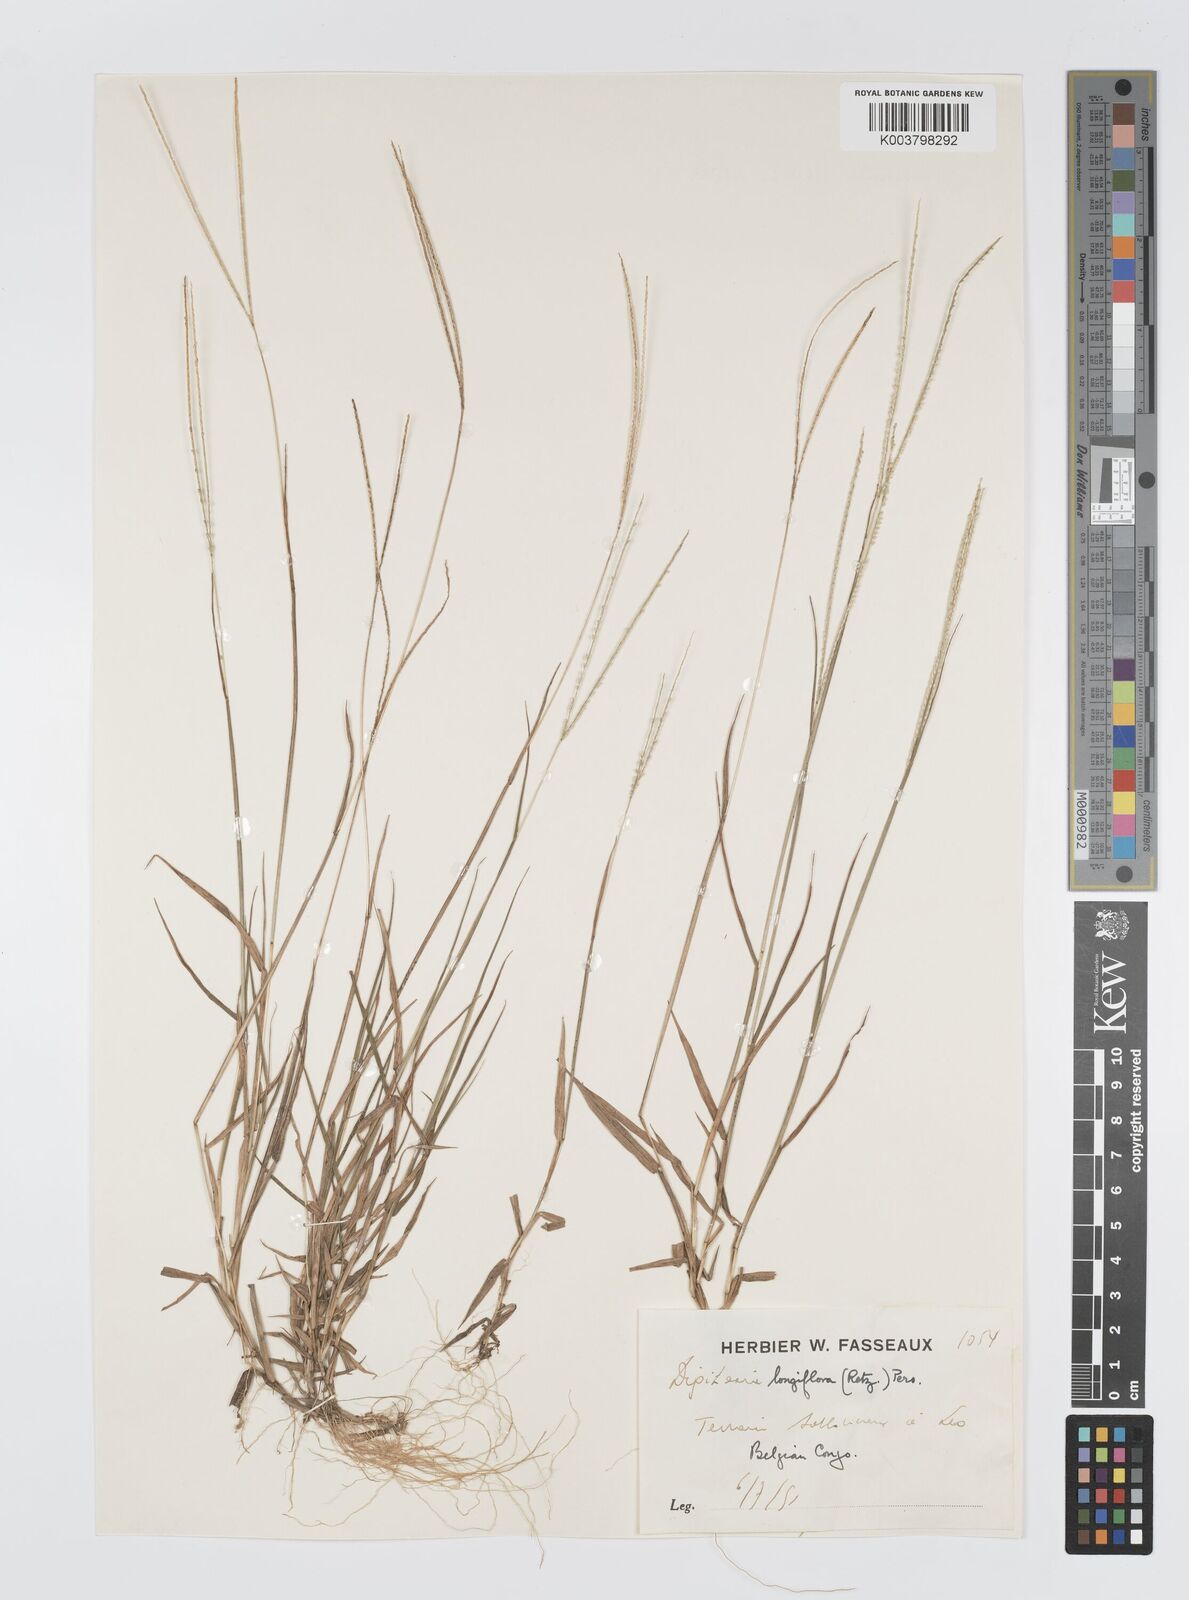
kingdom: Plantae
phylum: Tracheophyta
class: Liliopsida
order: Poales
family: Poaceae
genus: Digitaria
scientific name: Digitaria longiflora
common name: Wire crabgrass
